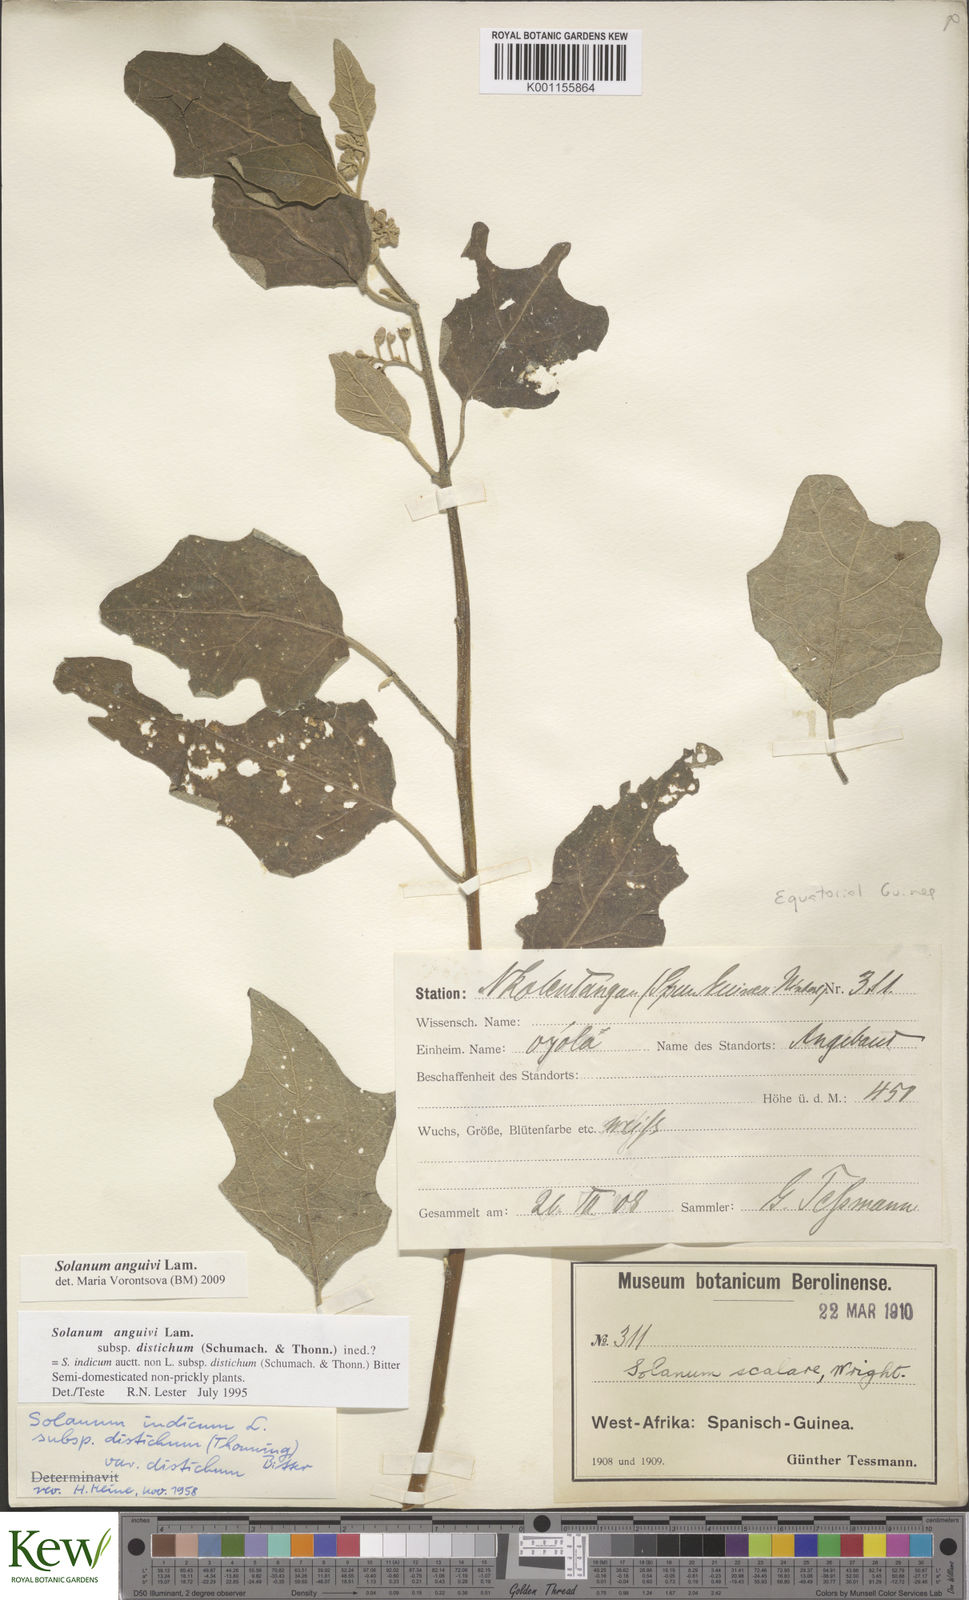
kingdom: Plantae
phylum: Tracheophyta
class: Magnoliopsida
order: Solanales
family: Solanaceae
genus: Solanum
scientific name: Solanum anguivi
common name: Forest bitterberry
